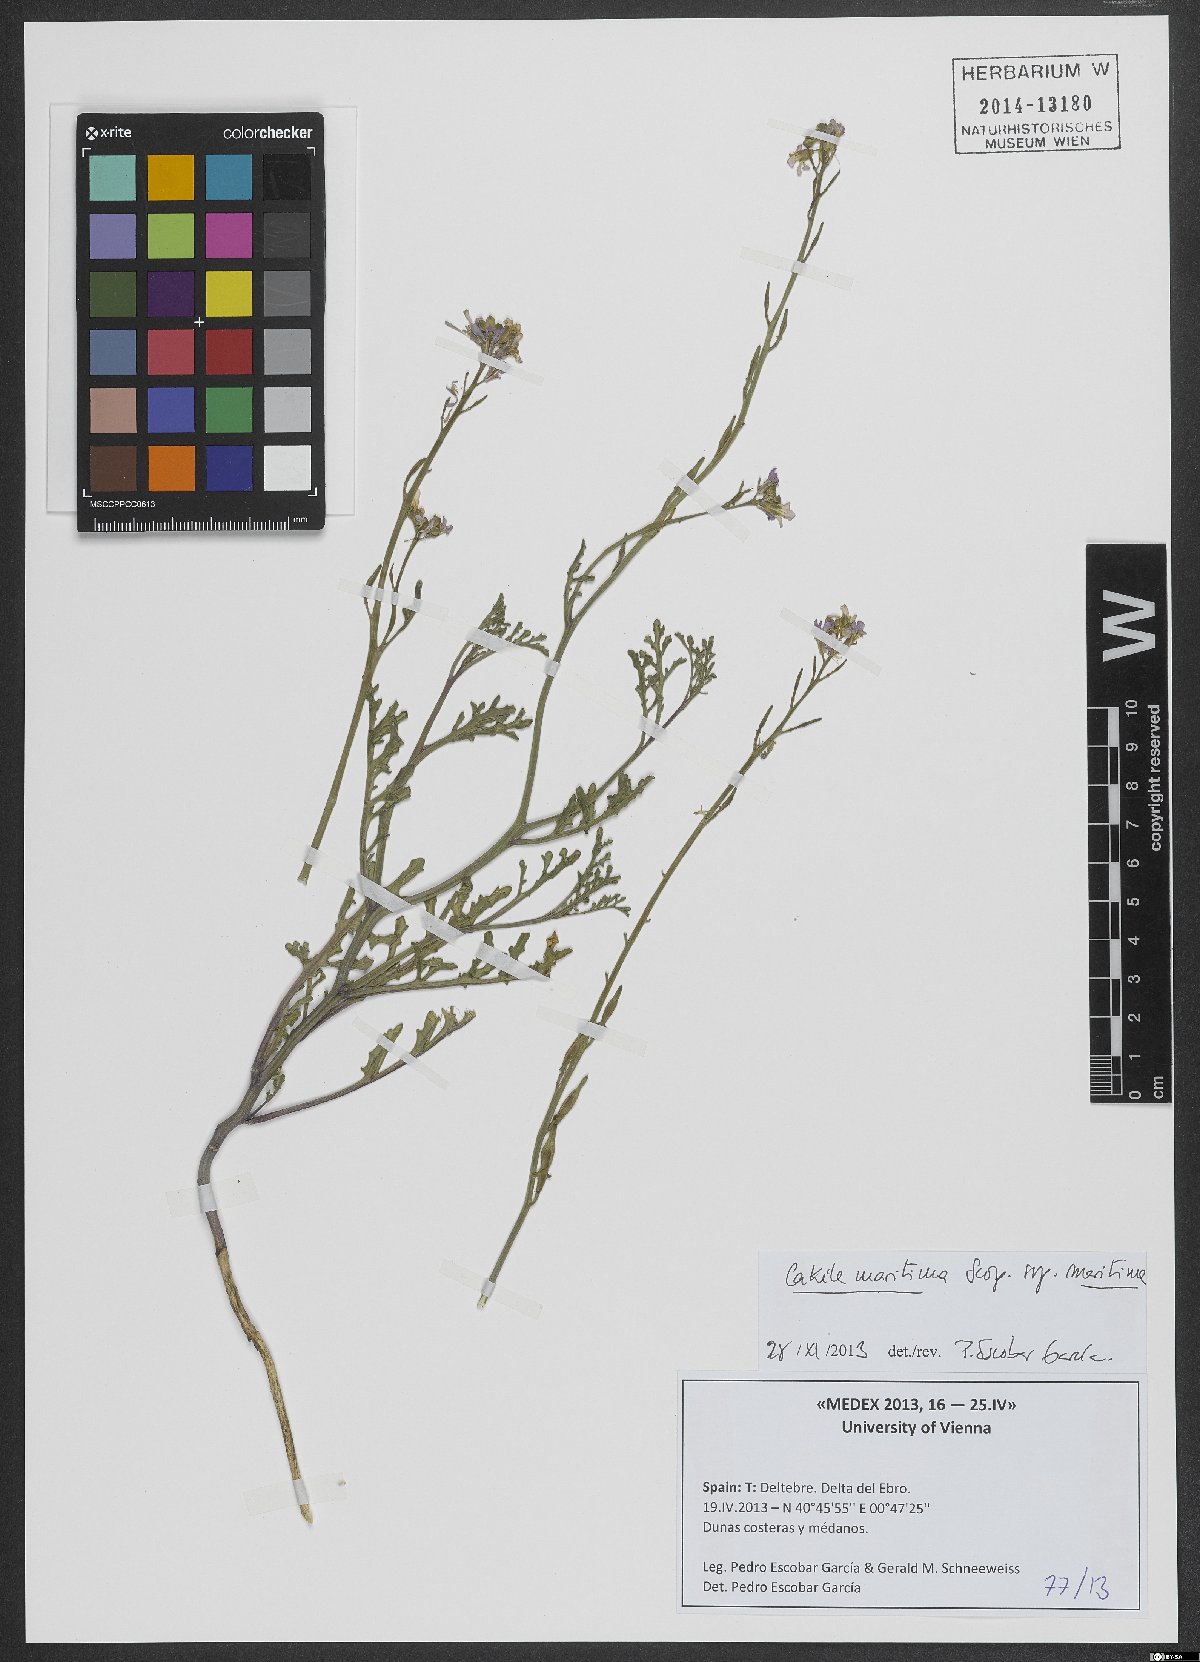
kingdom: Plantae
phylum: Tracheophyta
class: Magnoliopsida
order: Brassicales
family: Brassicaceae
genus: Cakile
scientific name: Cakile maritima
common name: Sea rocket
